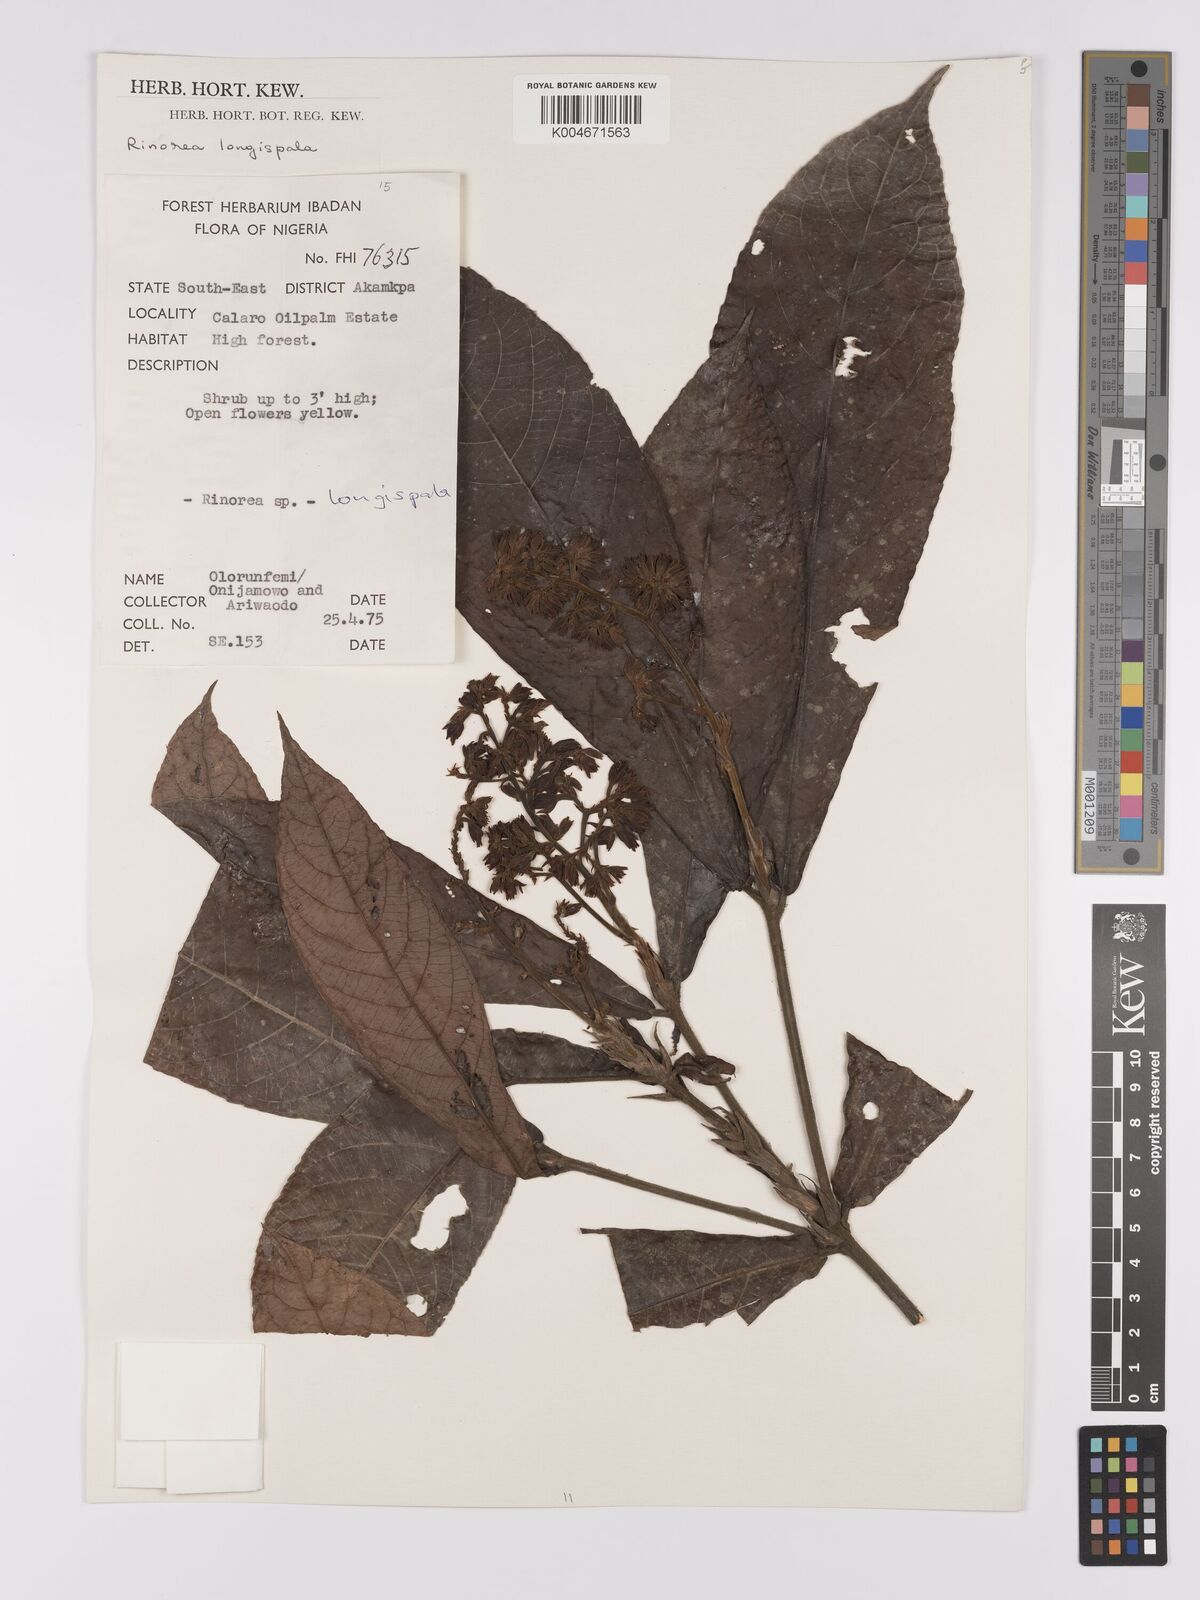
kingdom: Plantae
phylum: Tracheophyta
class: Magnoliopsida
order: Malpighiales
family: Violaceae
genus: Rinorea
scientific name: Rinorea longisepala
